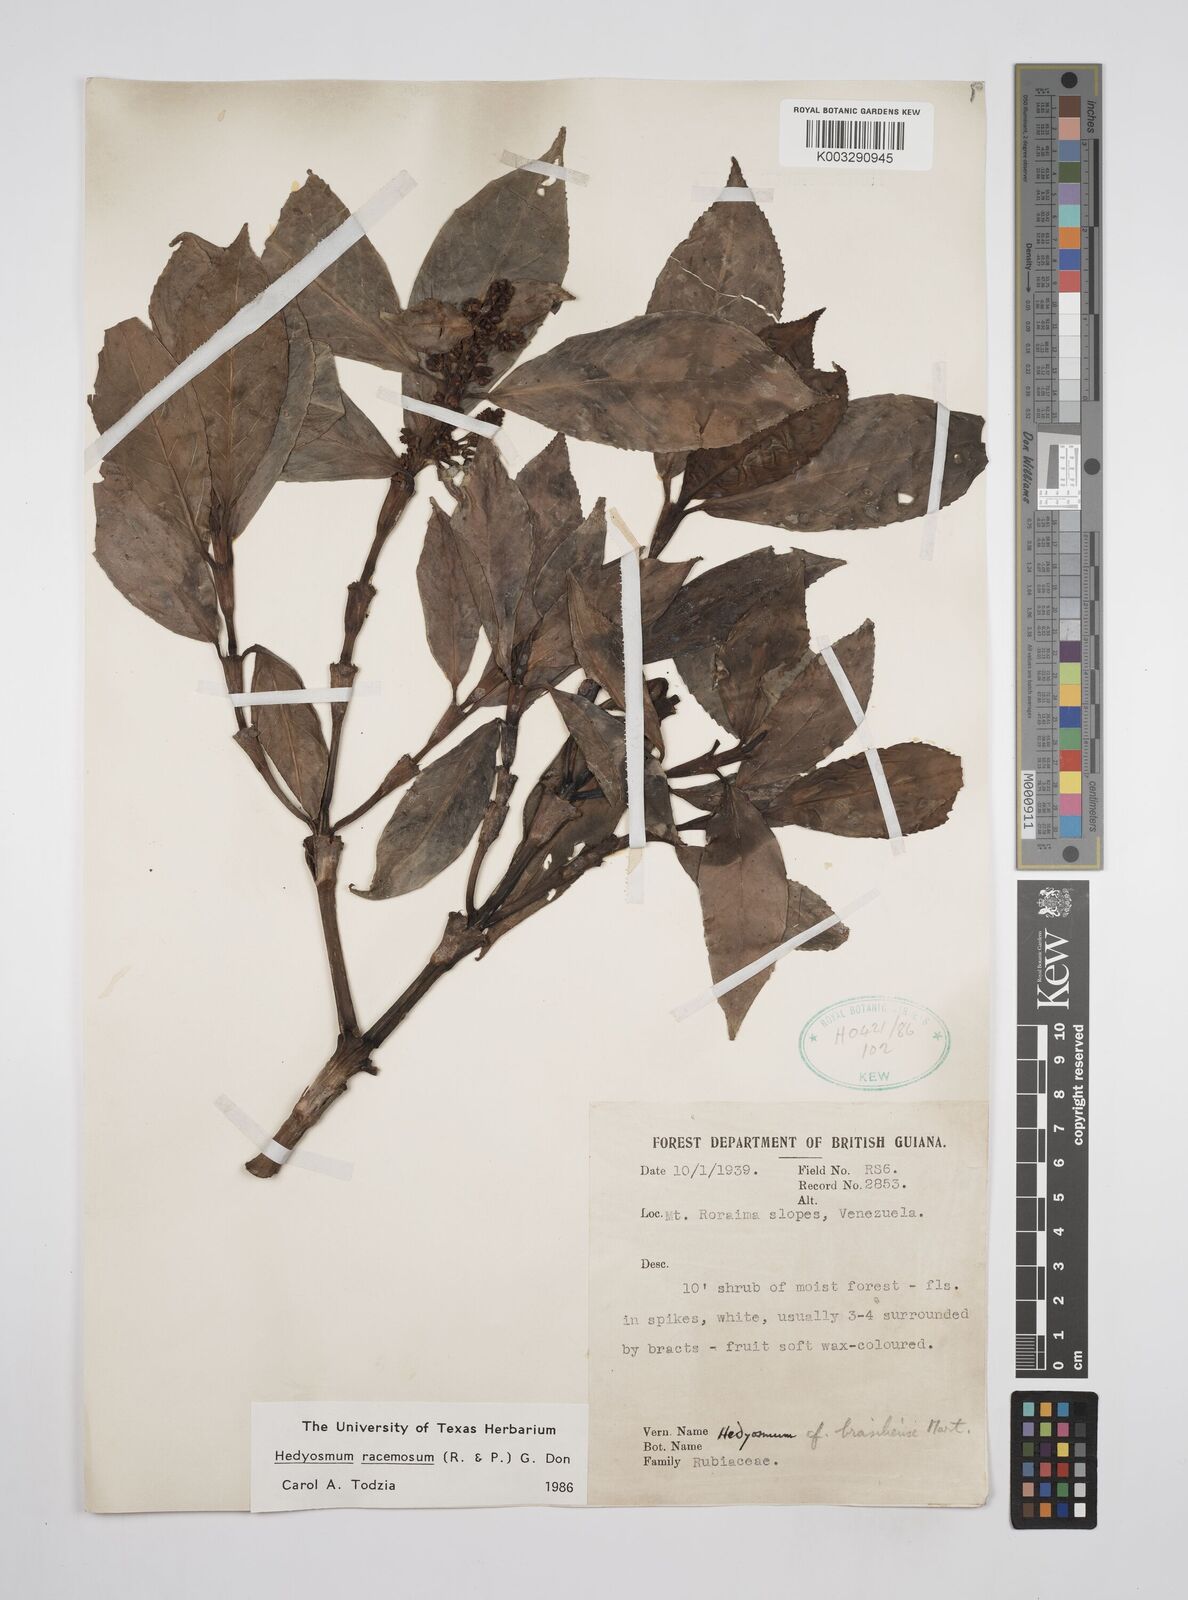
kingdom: Plantae
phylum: Tracheophyta
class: Magnoliopsida
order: Chloranthales
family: Chloranthaceae
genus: Hedyosmum
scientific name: Hedyosmum racemosum
